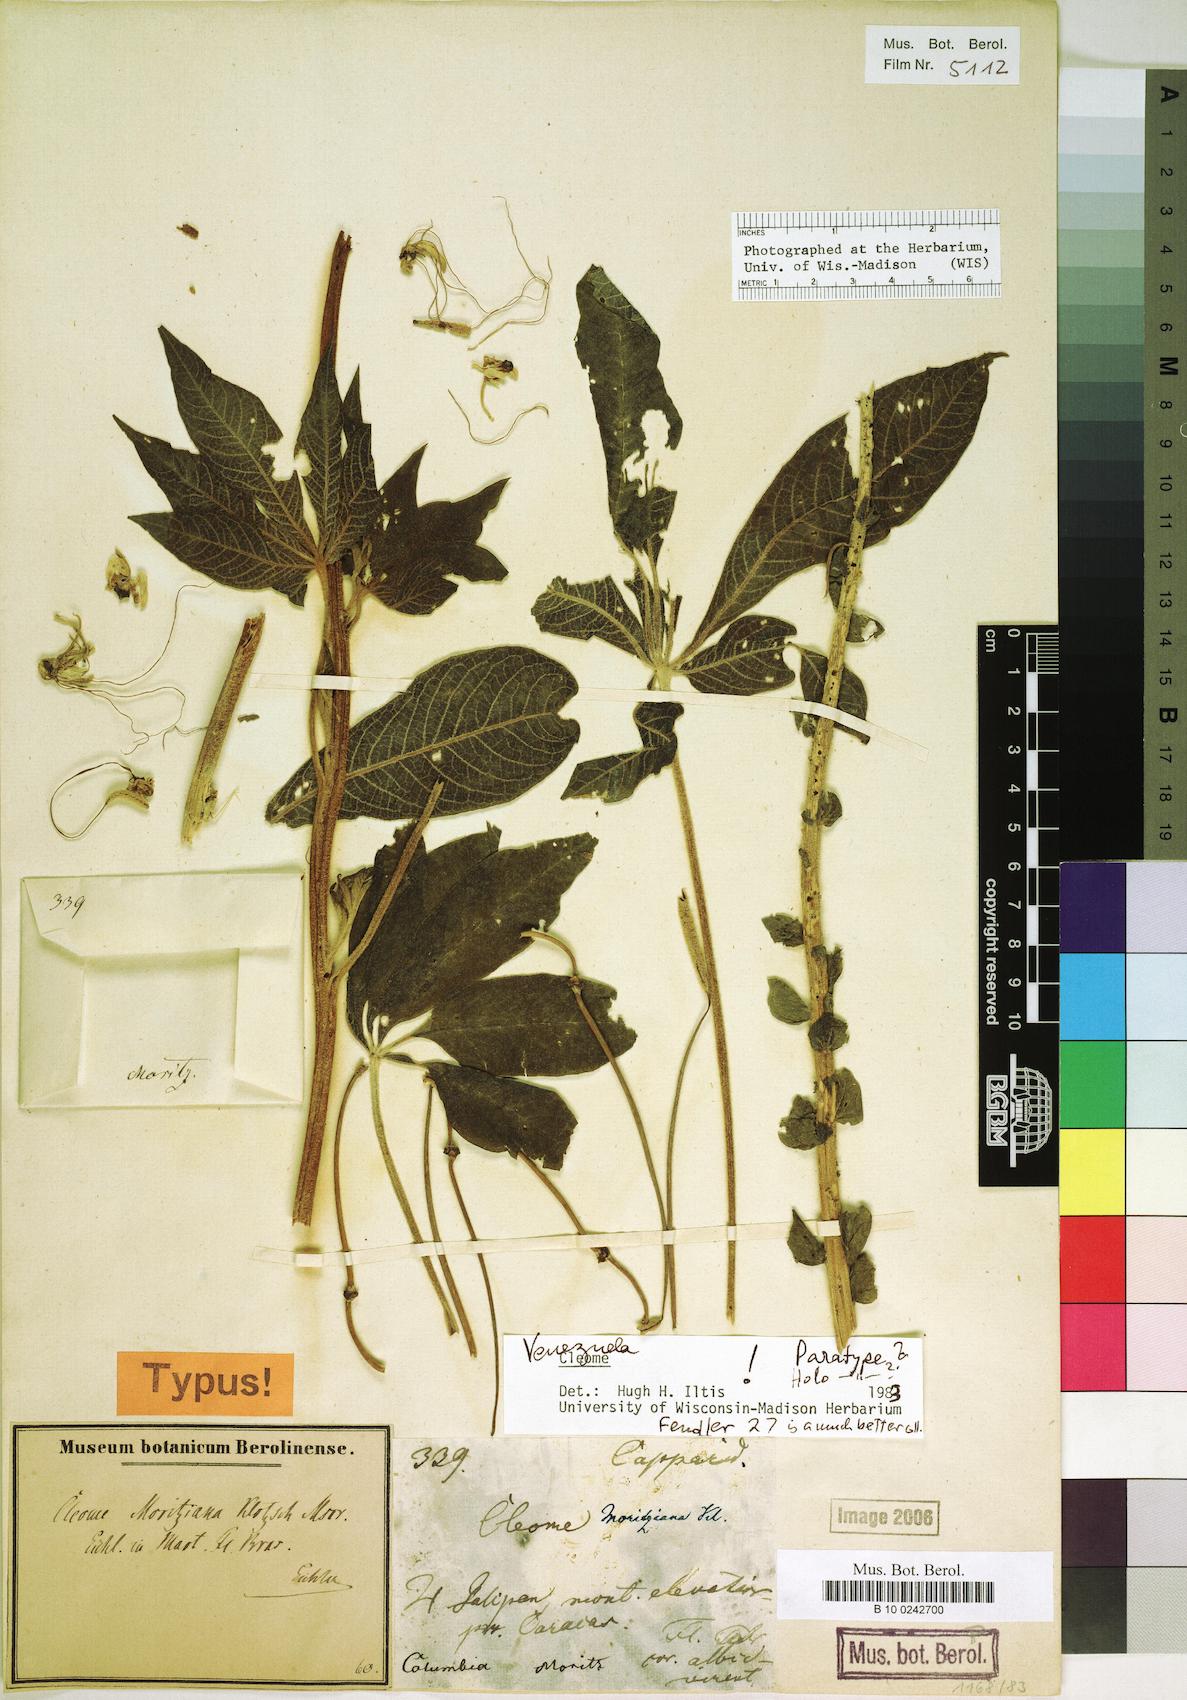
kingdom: Plantae
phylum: Tracheophyta
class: Magnoliopsida
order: Brassicales
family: Cleomaceae
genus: Andinocleome
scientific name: Andinocleome moritziana
